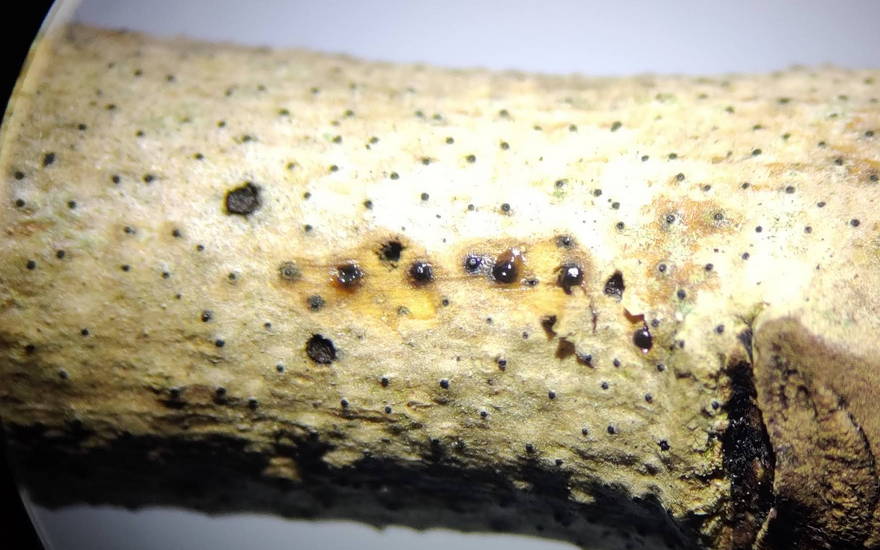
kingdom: Fungi
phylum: Ascomycota
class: Sordariomycetes
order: Xylariales
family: Diatrypaceae
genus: Cryptosphaeria
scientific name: Cryptosphaeria eunomia
